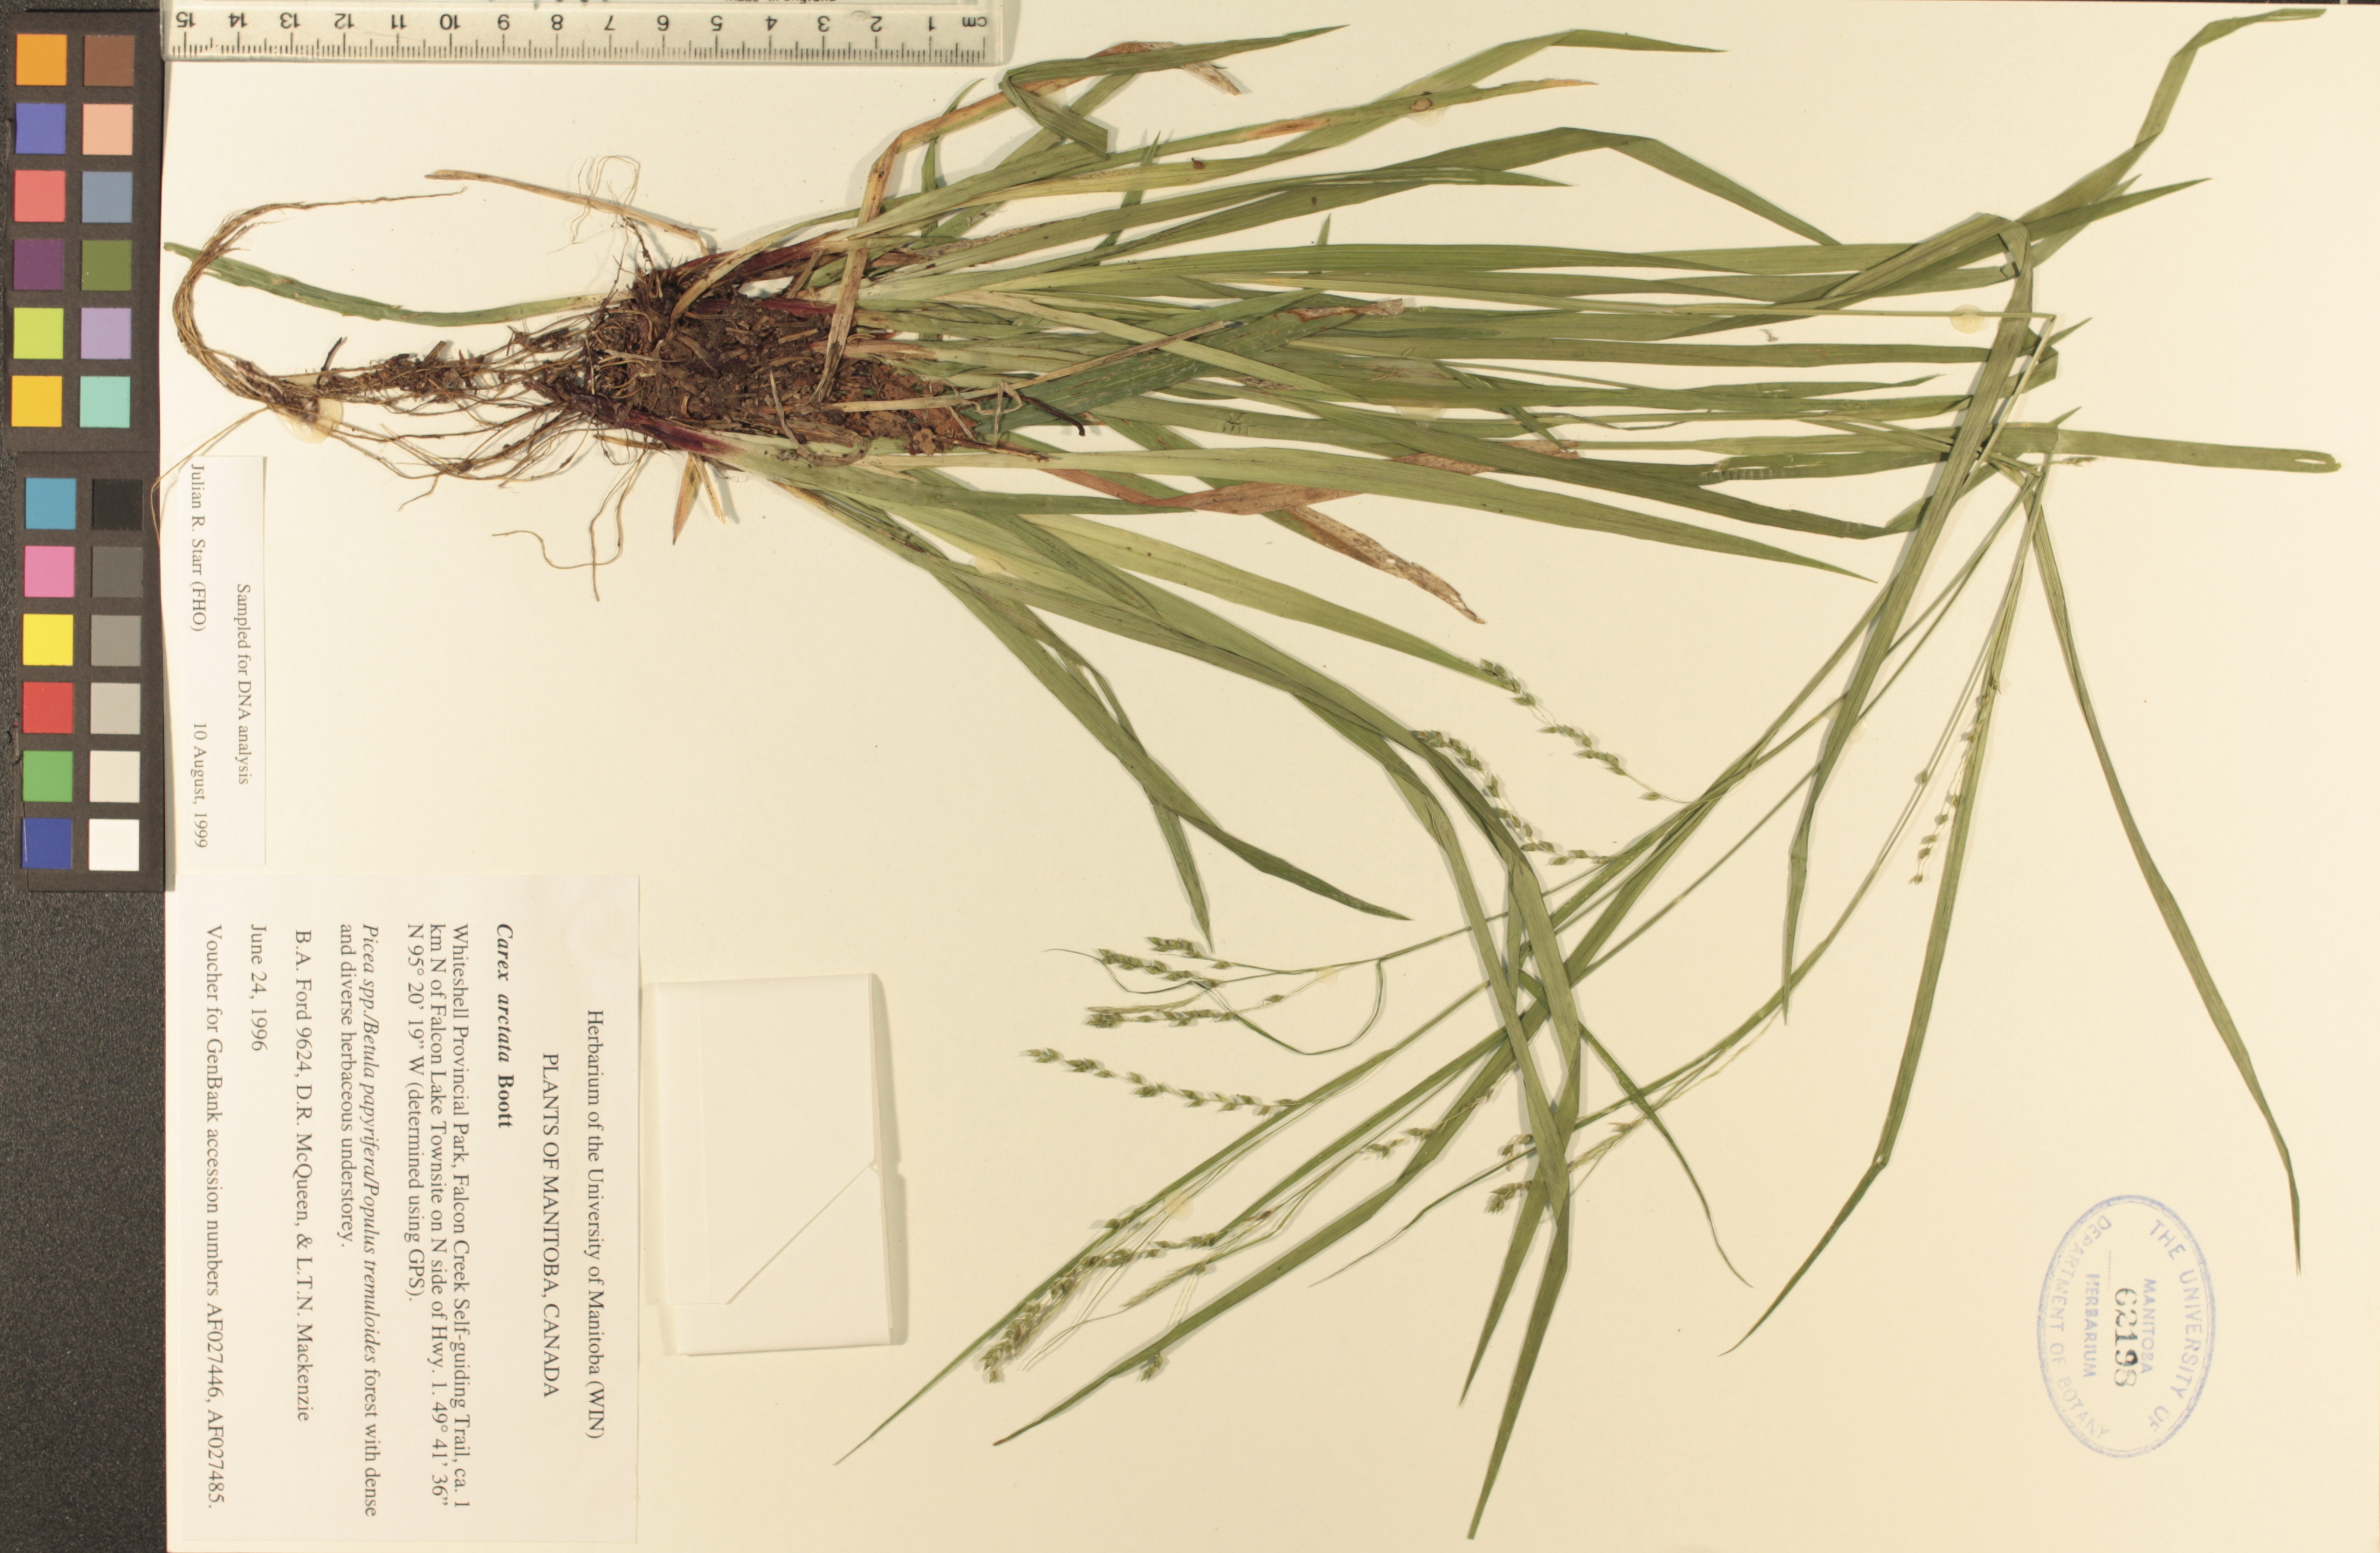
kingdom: Plantae
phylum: Tracheophyta
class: Liliopsida
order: Poales
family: Cyperaceae
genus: Carex
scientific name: Carex arctata
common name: Black sedge
